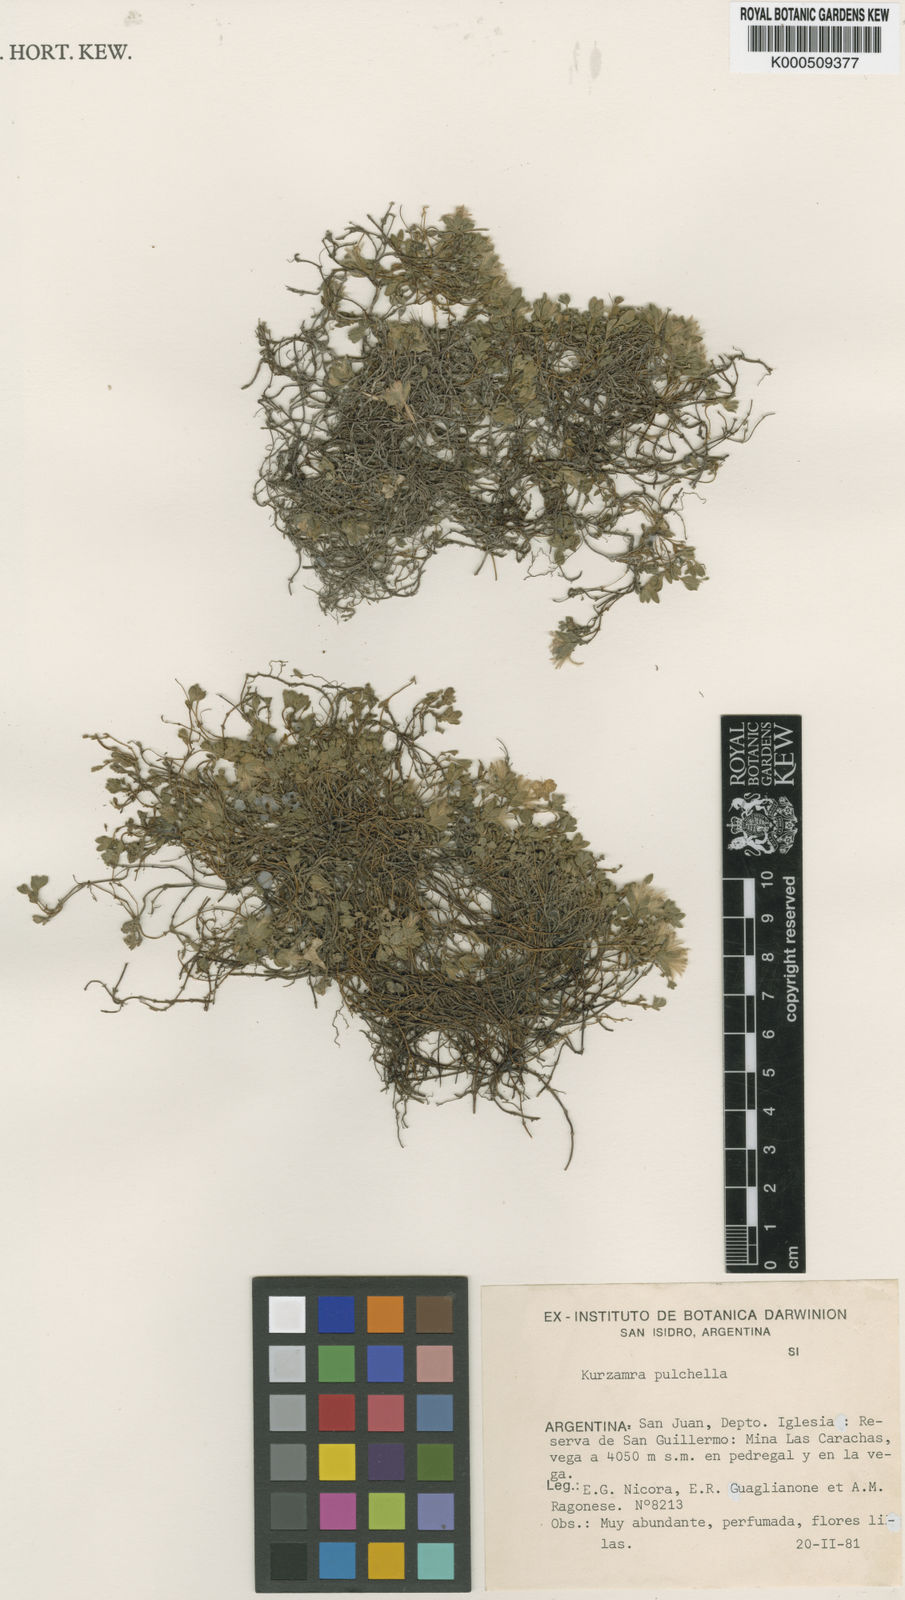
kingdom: Plantae
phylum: Tracheophyta
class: Magnoliopsida
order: Lamiales
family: Lamiaceae
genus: Kurzamra
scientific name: Kurzamra pulchella
